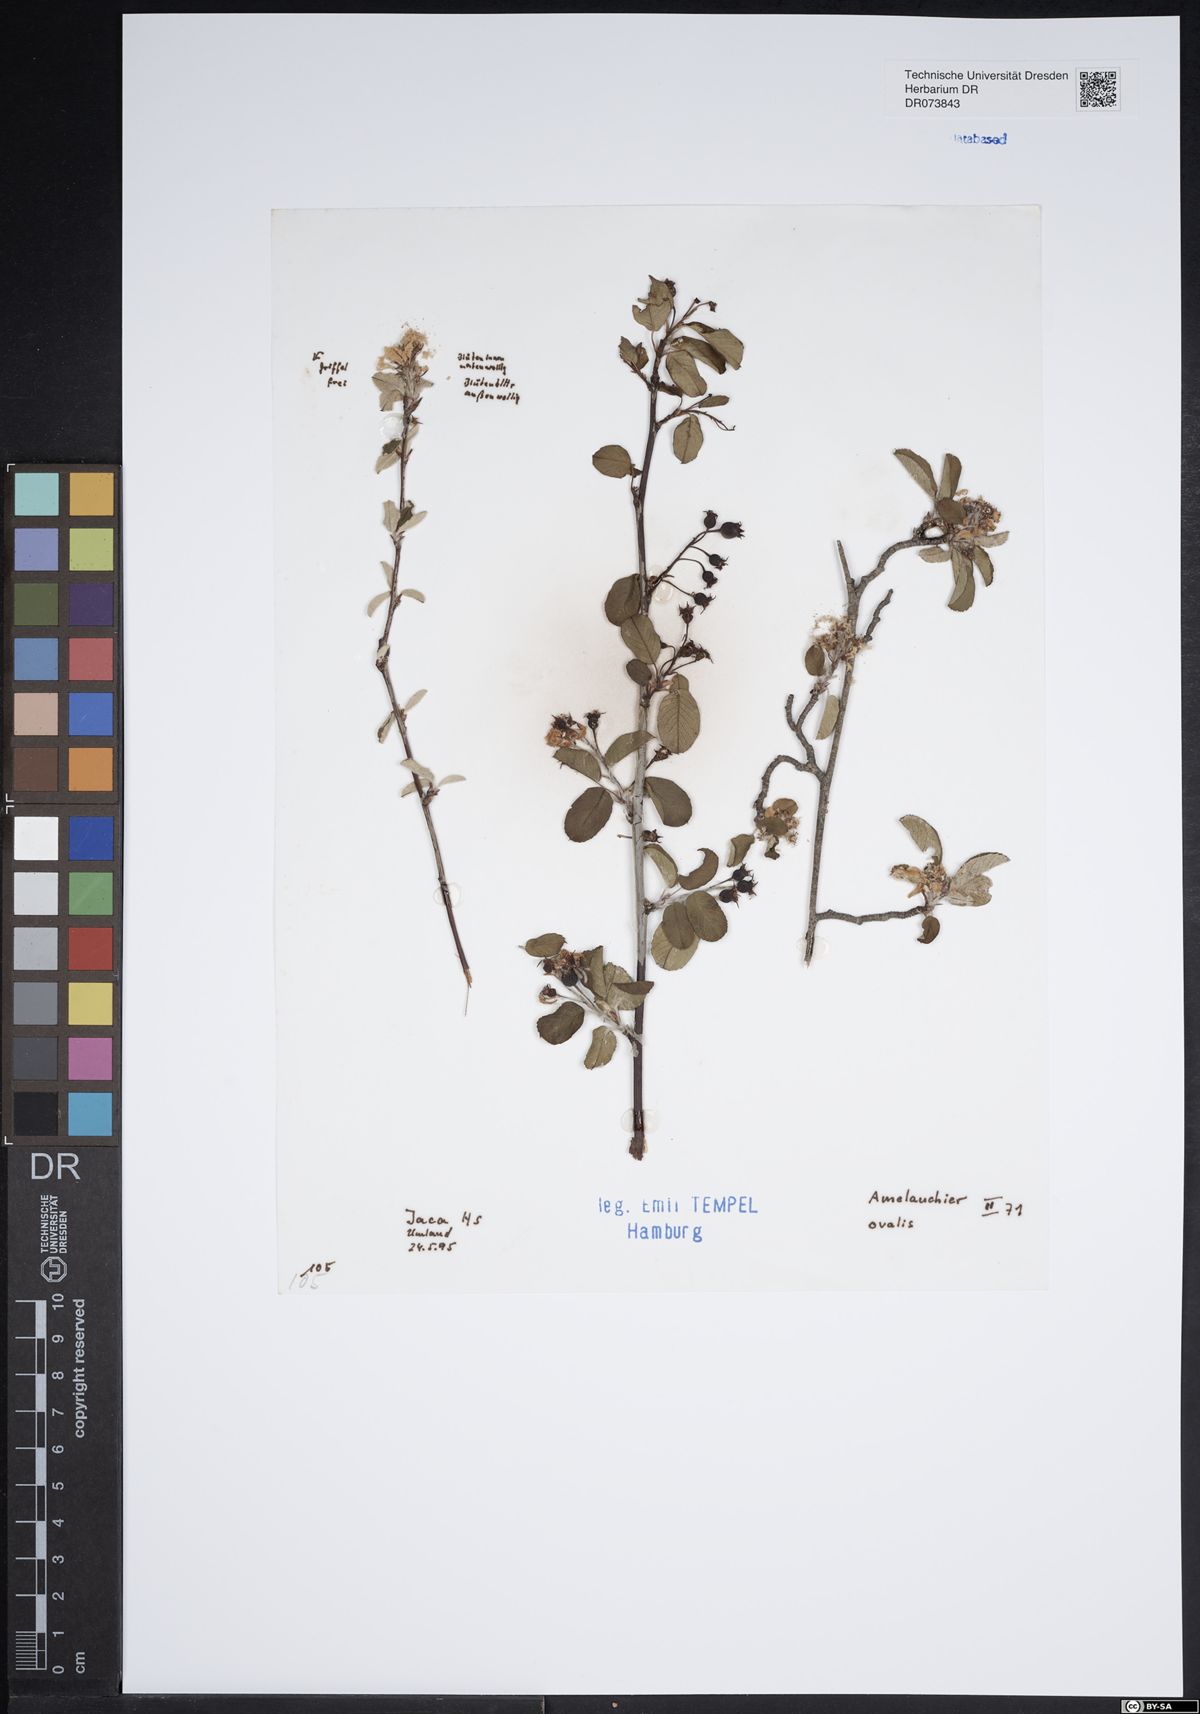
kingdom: Plantae
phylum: Tracheophyta
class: Magnoliopsida
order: Rosales
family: Rosaceae
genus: Amelanchier
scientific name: Amelanchier ovalis
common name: Serviceberry
